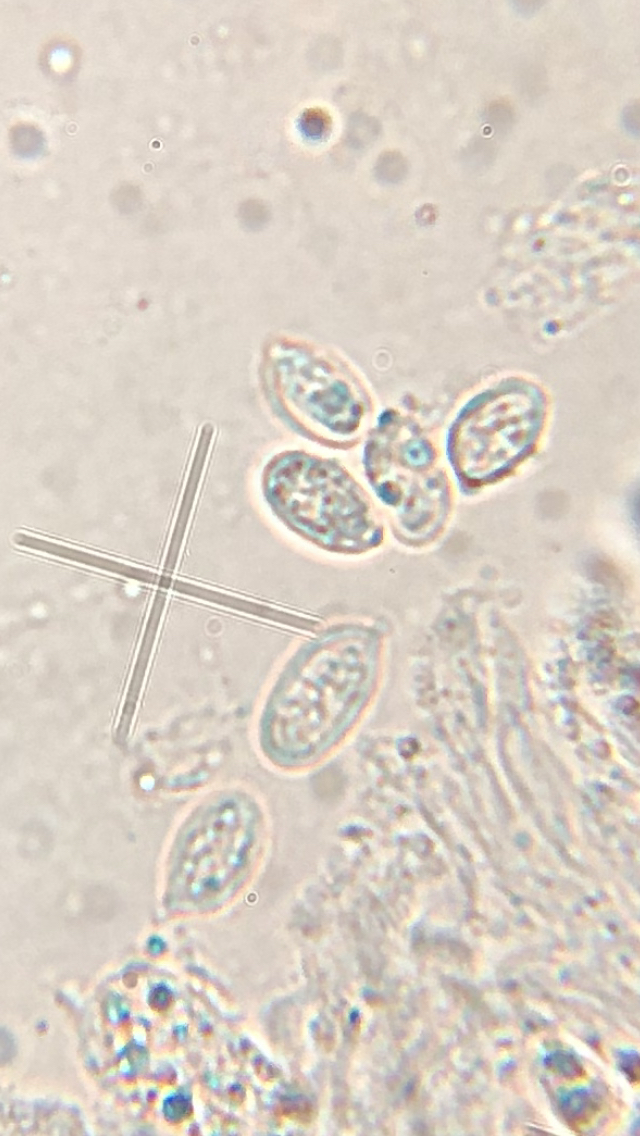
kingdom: Fungi
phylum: Basidiomycota
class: Agaricomycetes
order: Agaricales
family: Entolomataceae
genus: Clitopilus
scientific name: Clitopilus hobsonii
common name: Miller's oysterling
